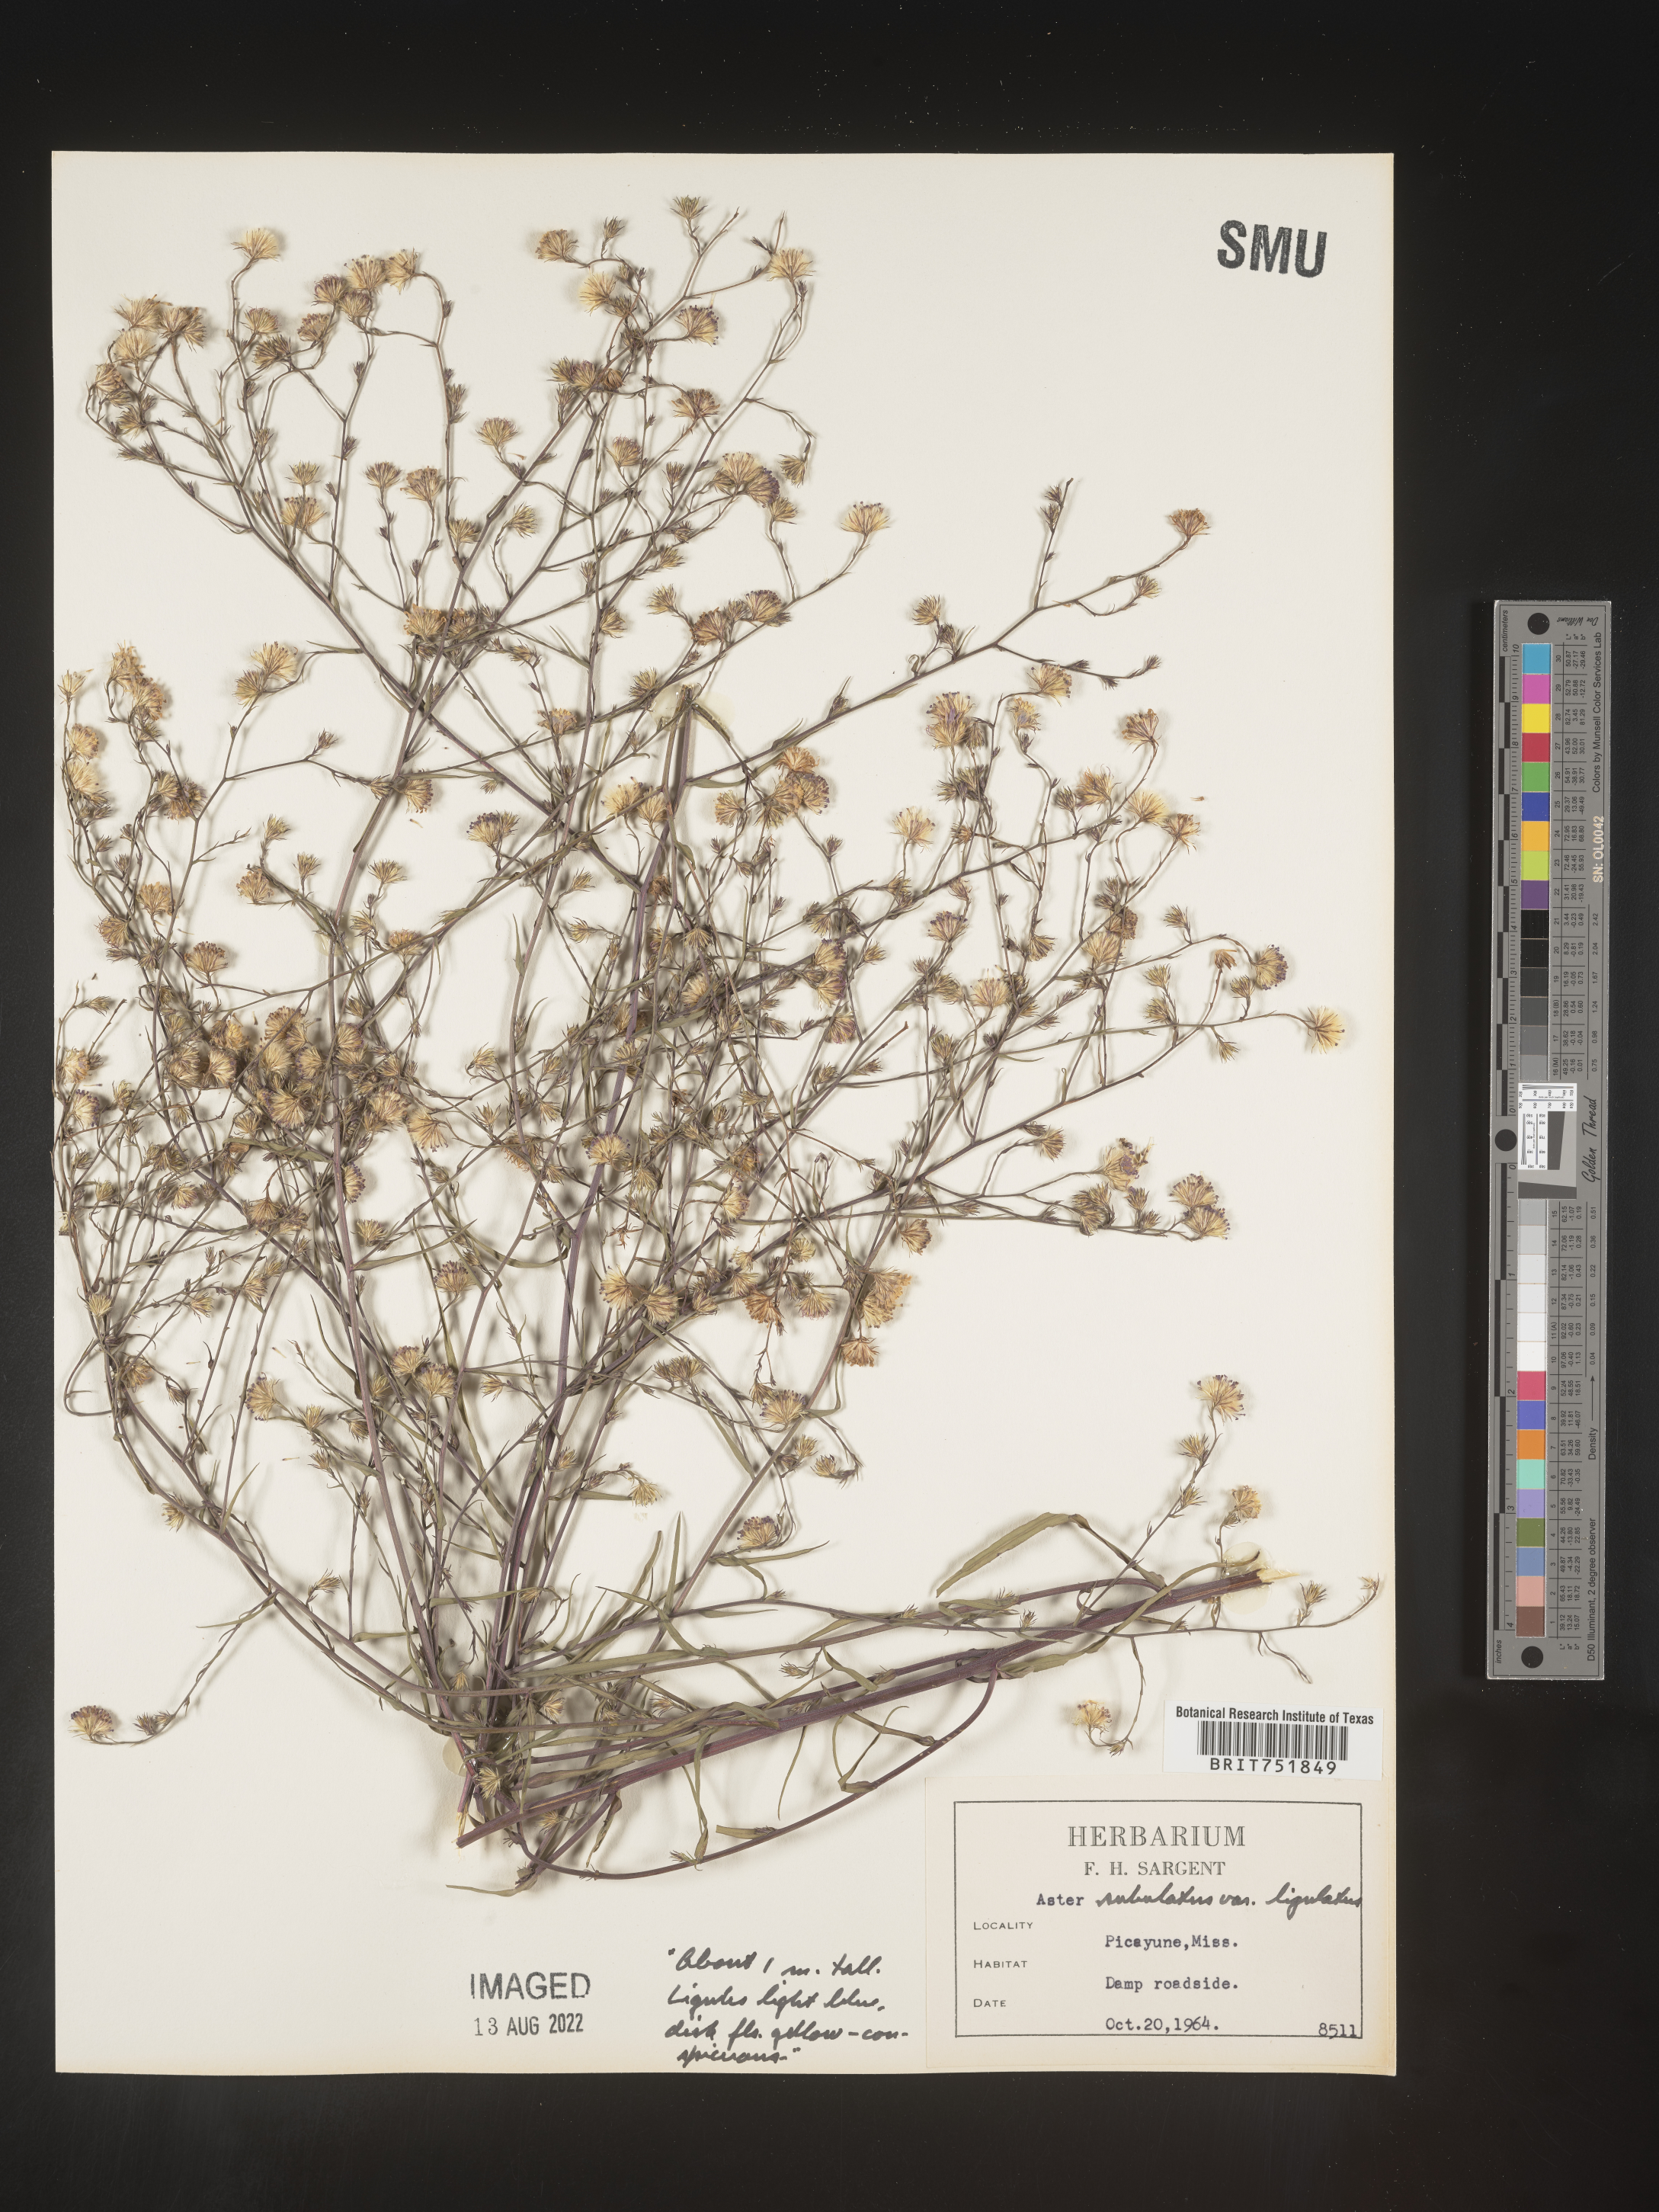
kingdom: Plantae
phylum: Tracheophyta
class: Magnoliopsida
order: Asterales
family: Asteraceae
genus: Symphyotrichum
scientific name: Symphyotrichum divaricatum
